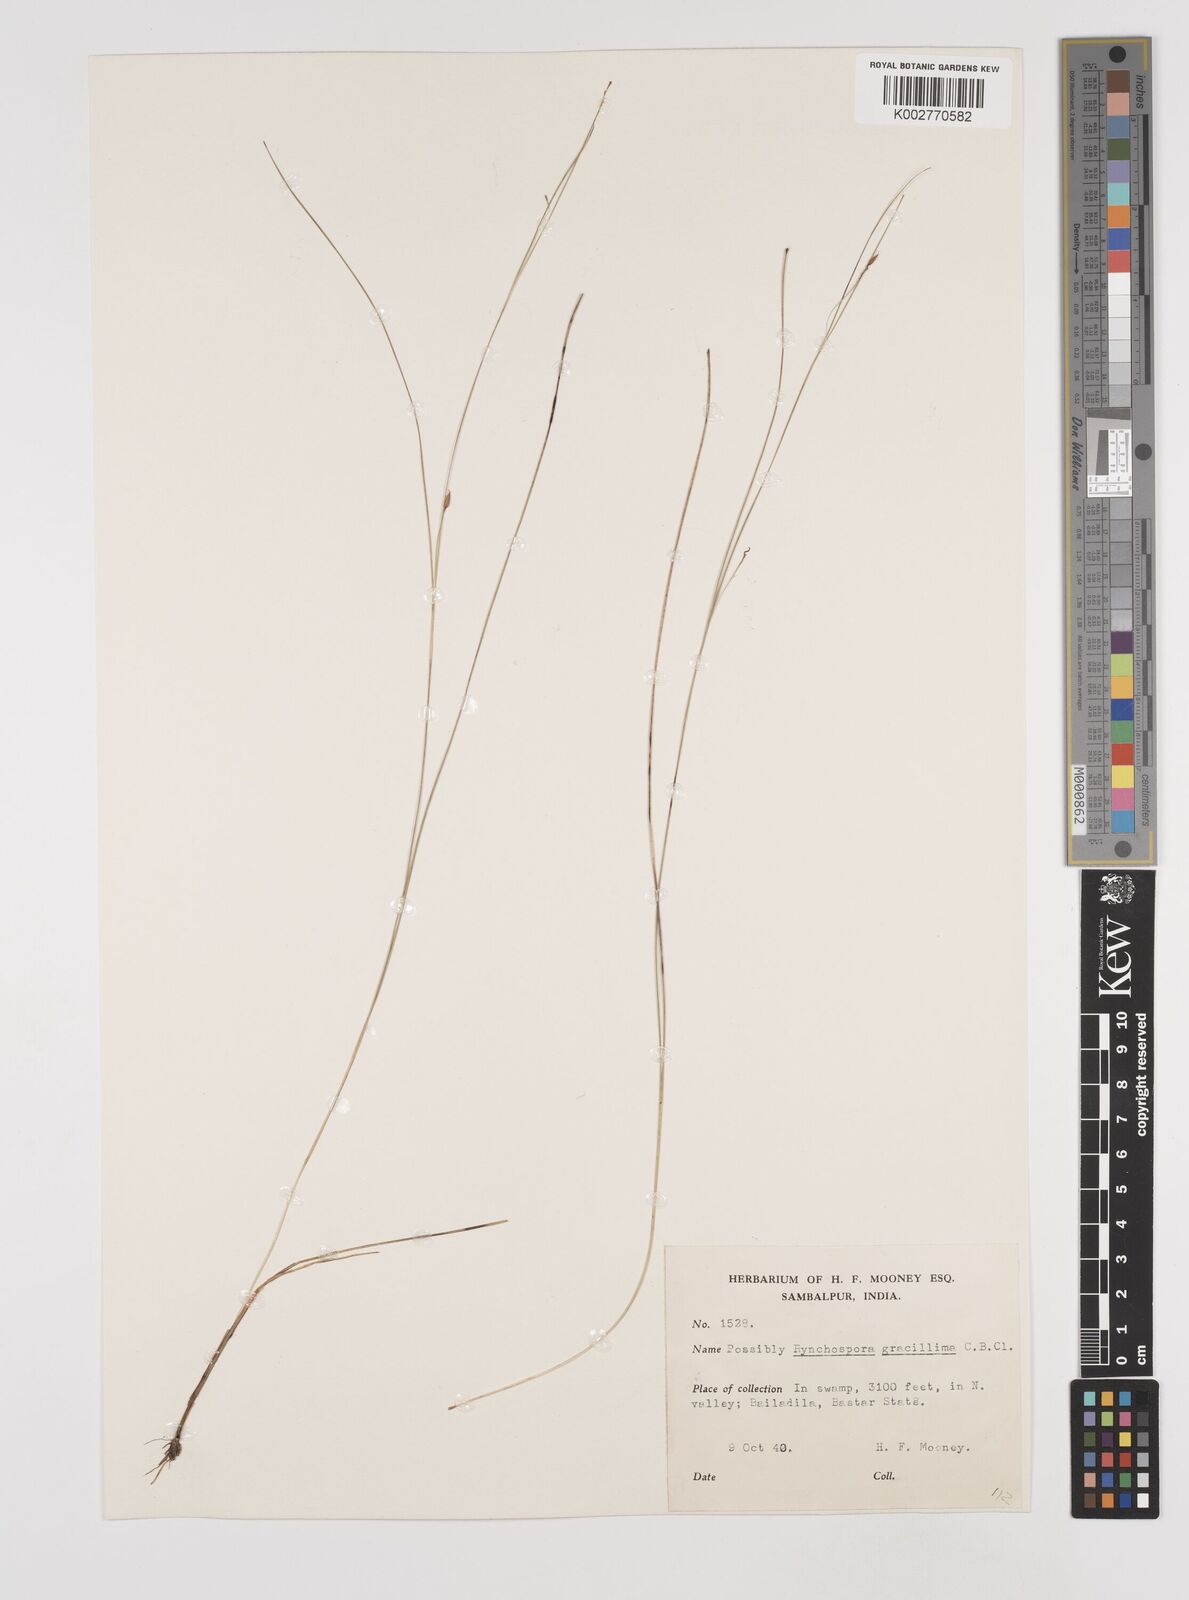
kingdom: Plantae
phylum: Tracheophyta
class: Liliopsida
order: Poales
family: Cyperaceae
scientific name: Cyperaceae
